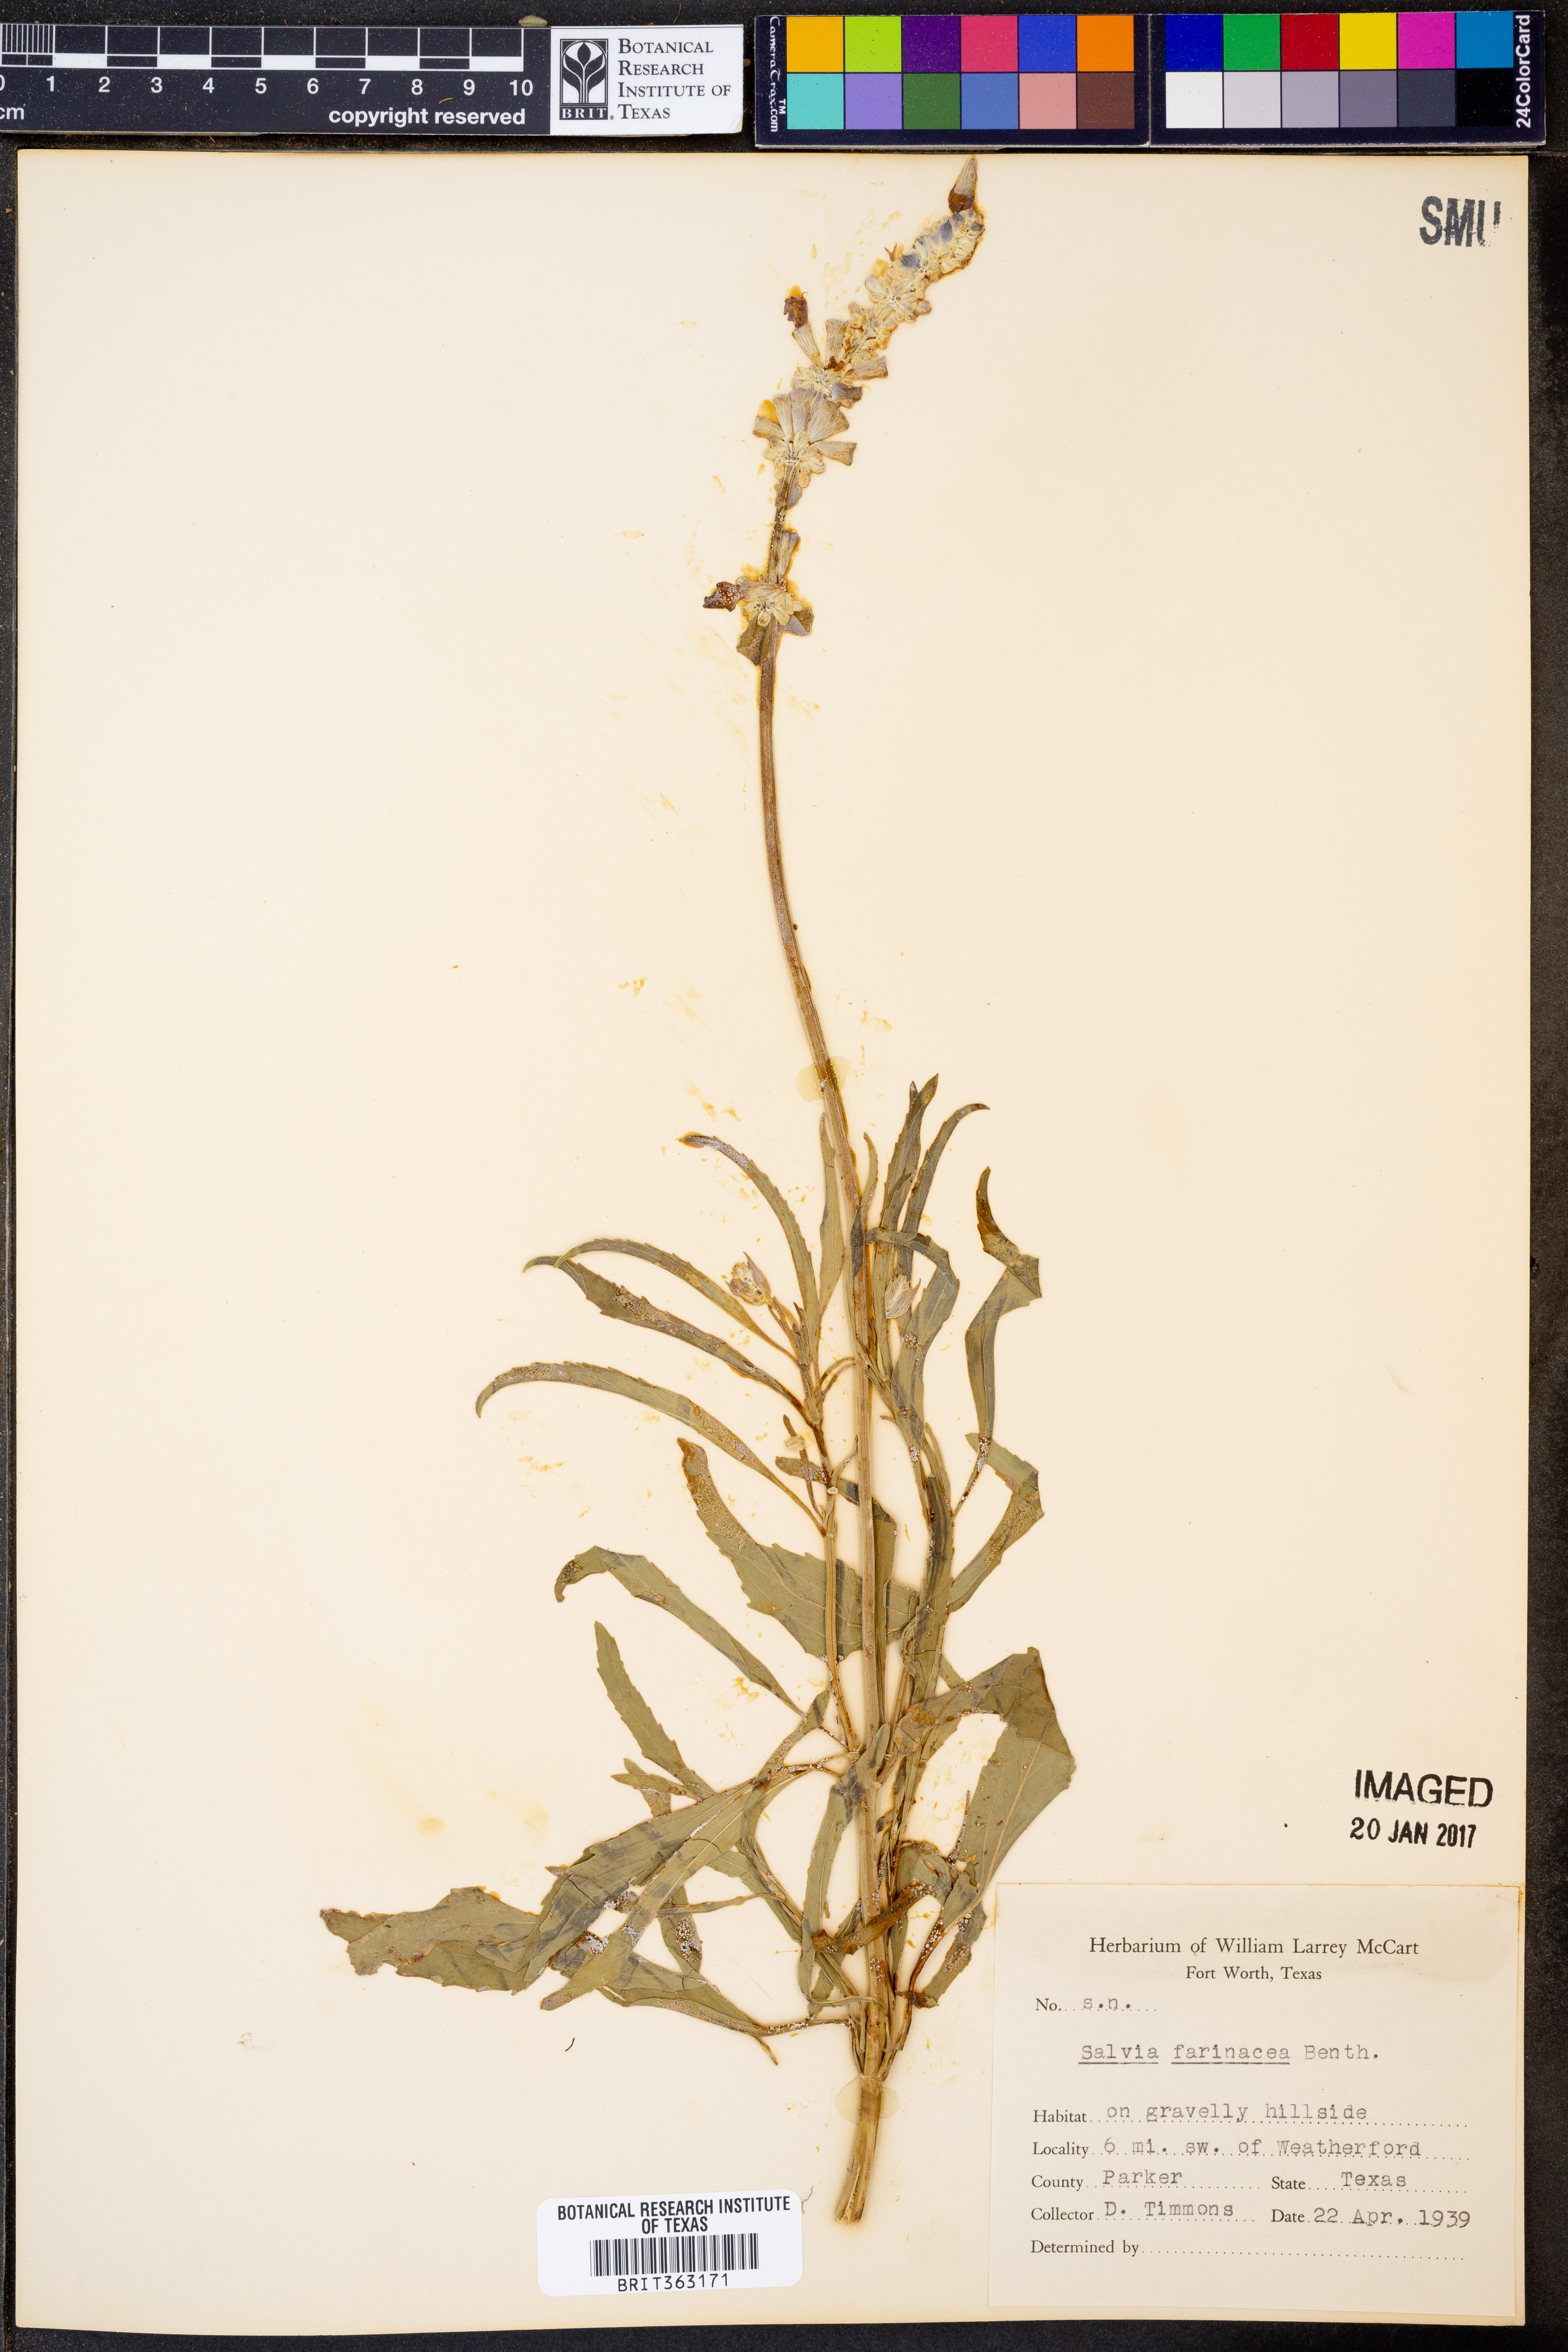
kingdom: Plantae
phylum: Tracheophyta
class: Magnoliopsida
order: Lamiales
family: Lamiaceae
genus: Salvia
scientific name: Salvia farinacea
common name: Mealy sage
